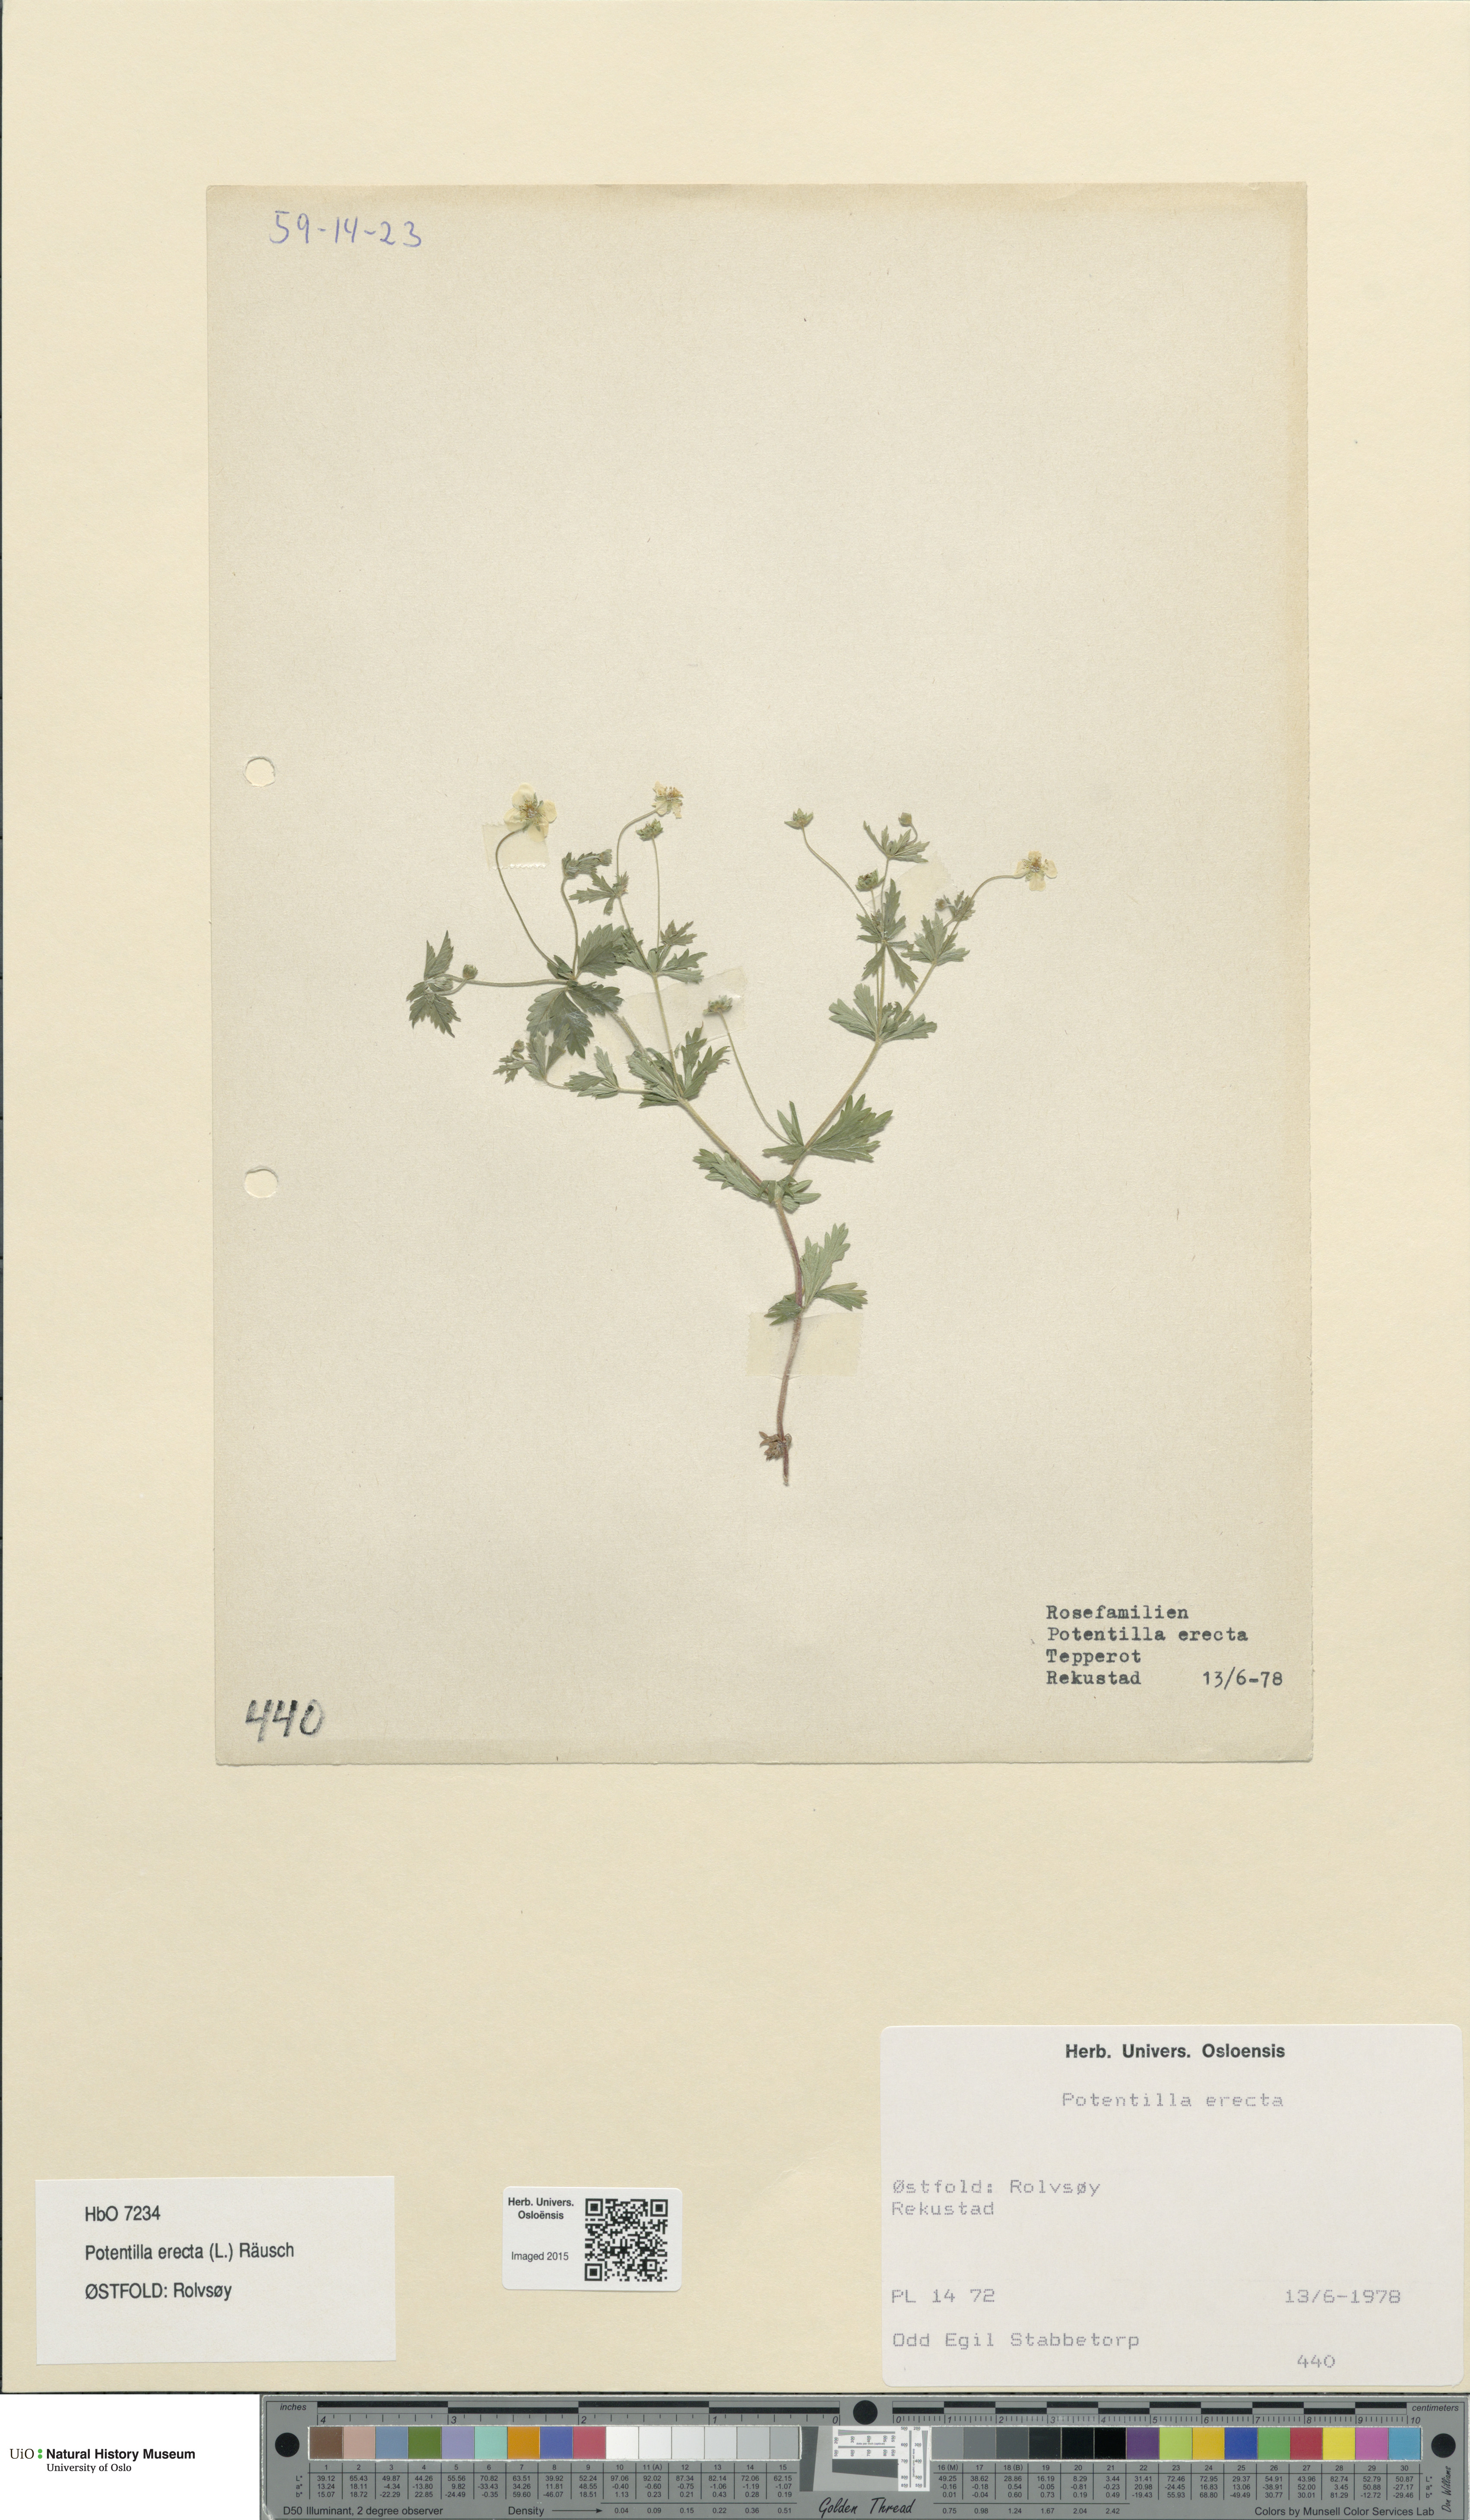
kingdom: Plantae
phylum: Tracheophyta
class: Magnoliopsida
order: Rosales
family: Rosaceae
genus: Potentilla
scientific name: Potentilla erecta
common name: Tormentil
